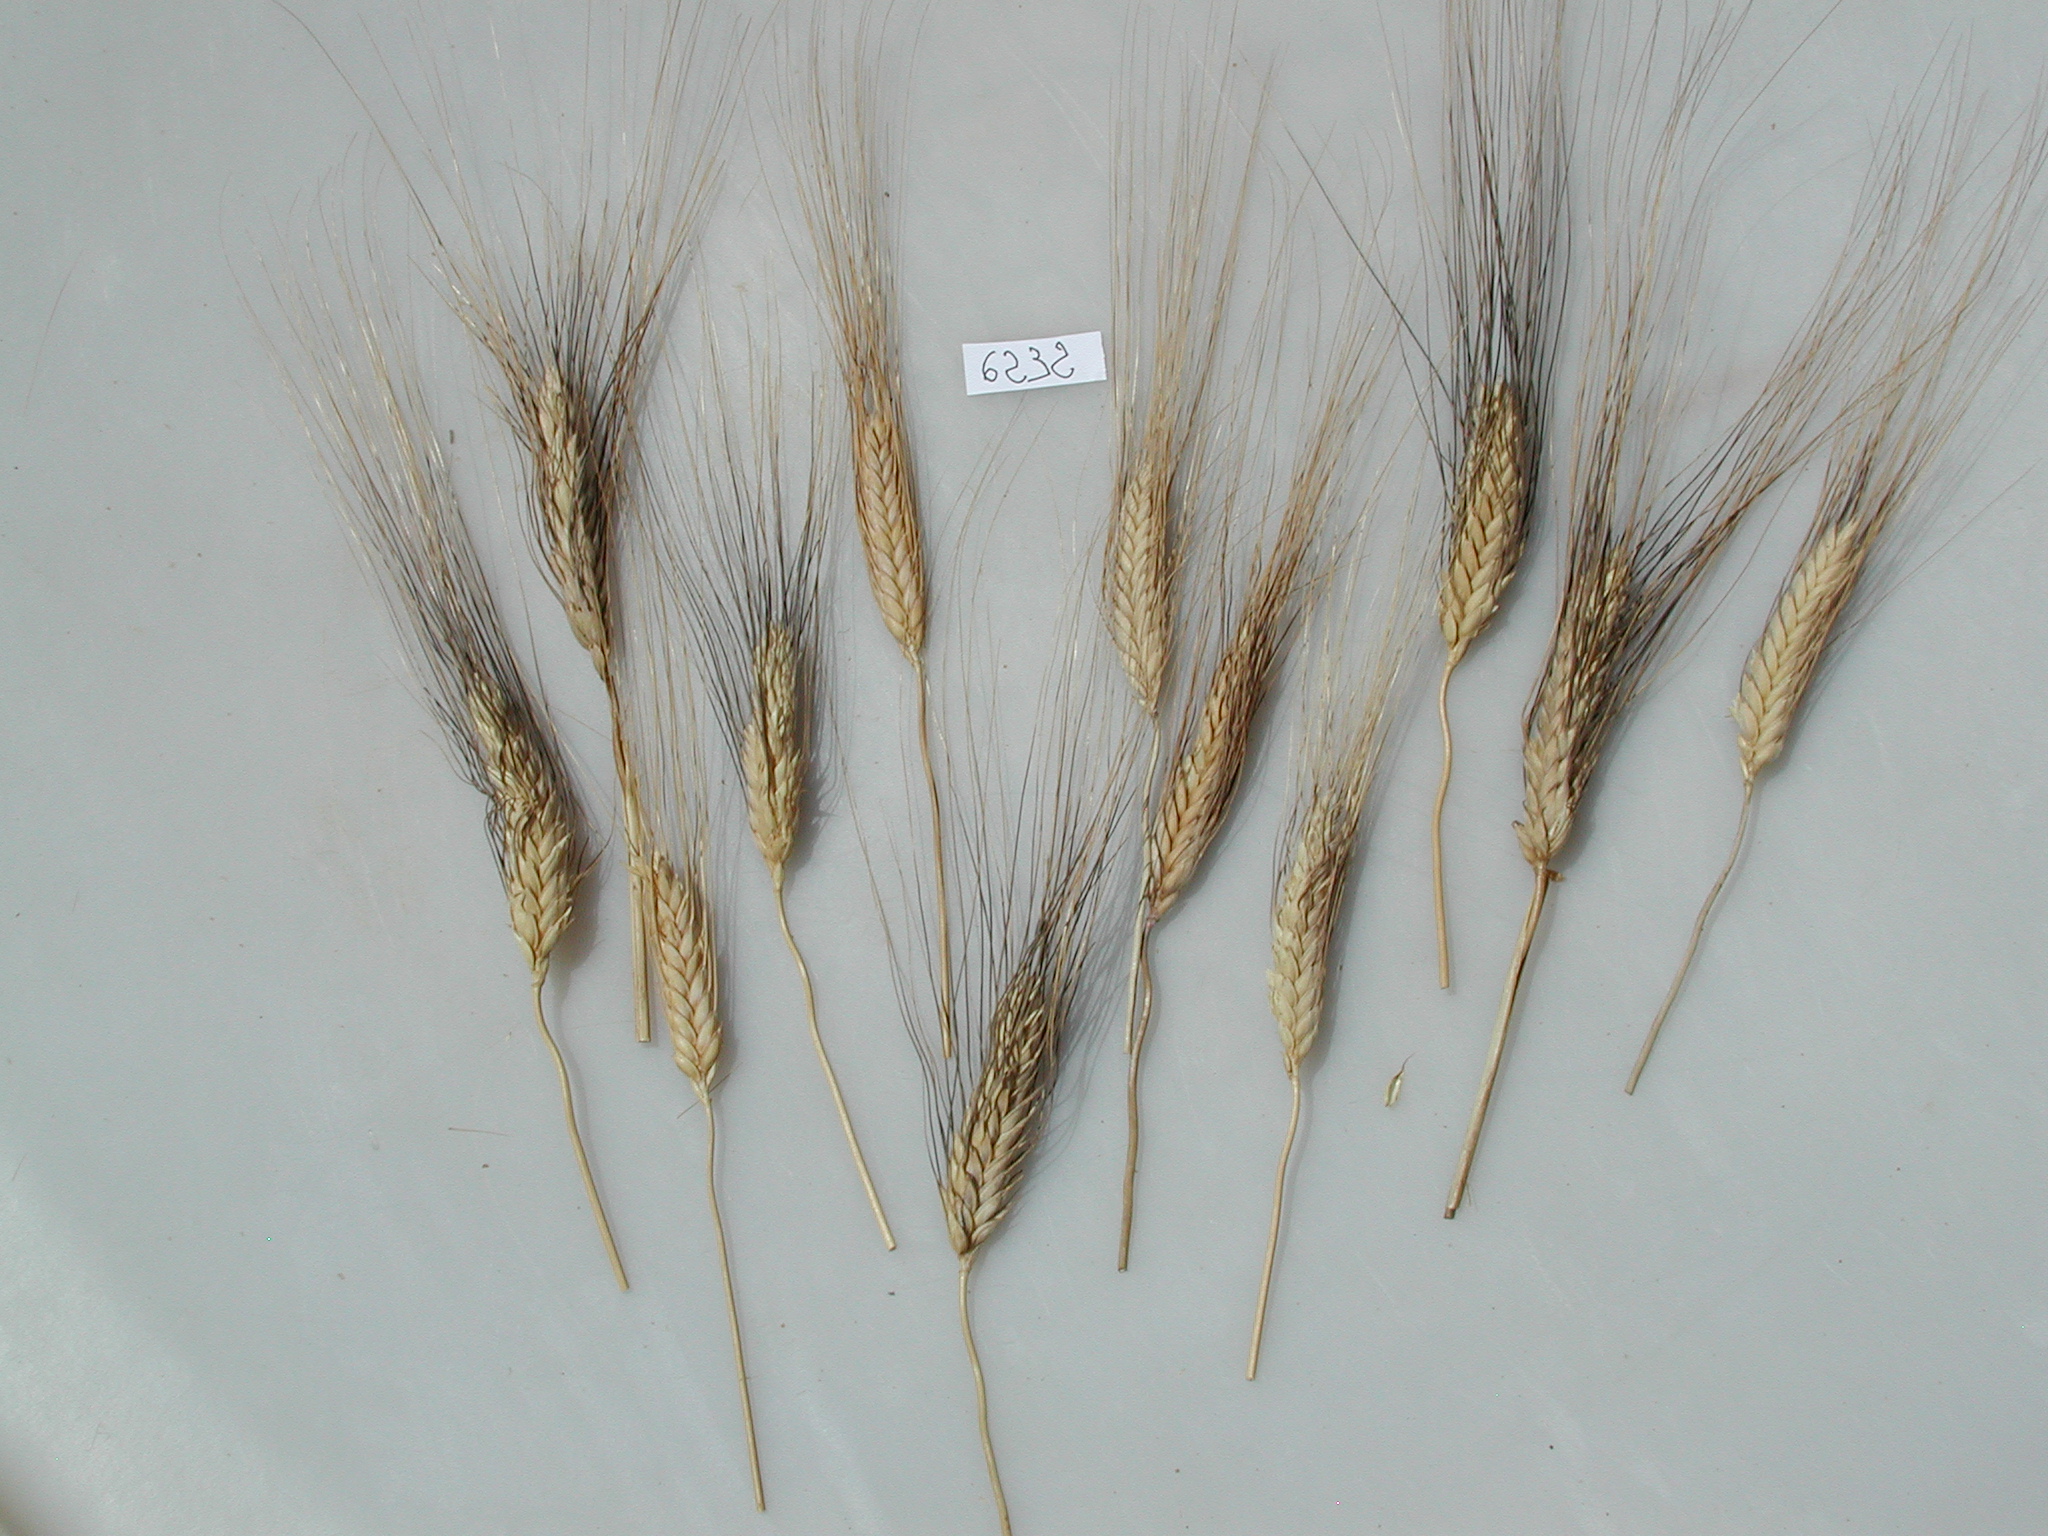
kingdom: Plantae
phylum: Tracheophyta
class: Liliopsida
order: Poales
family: Poaceae
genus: Triticum
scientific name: Triticum turgidum
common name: Wheat
